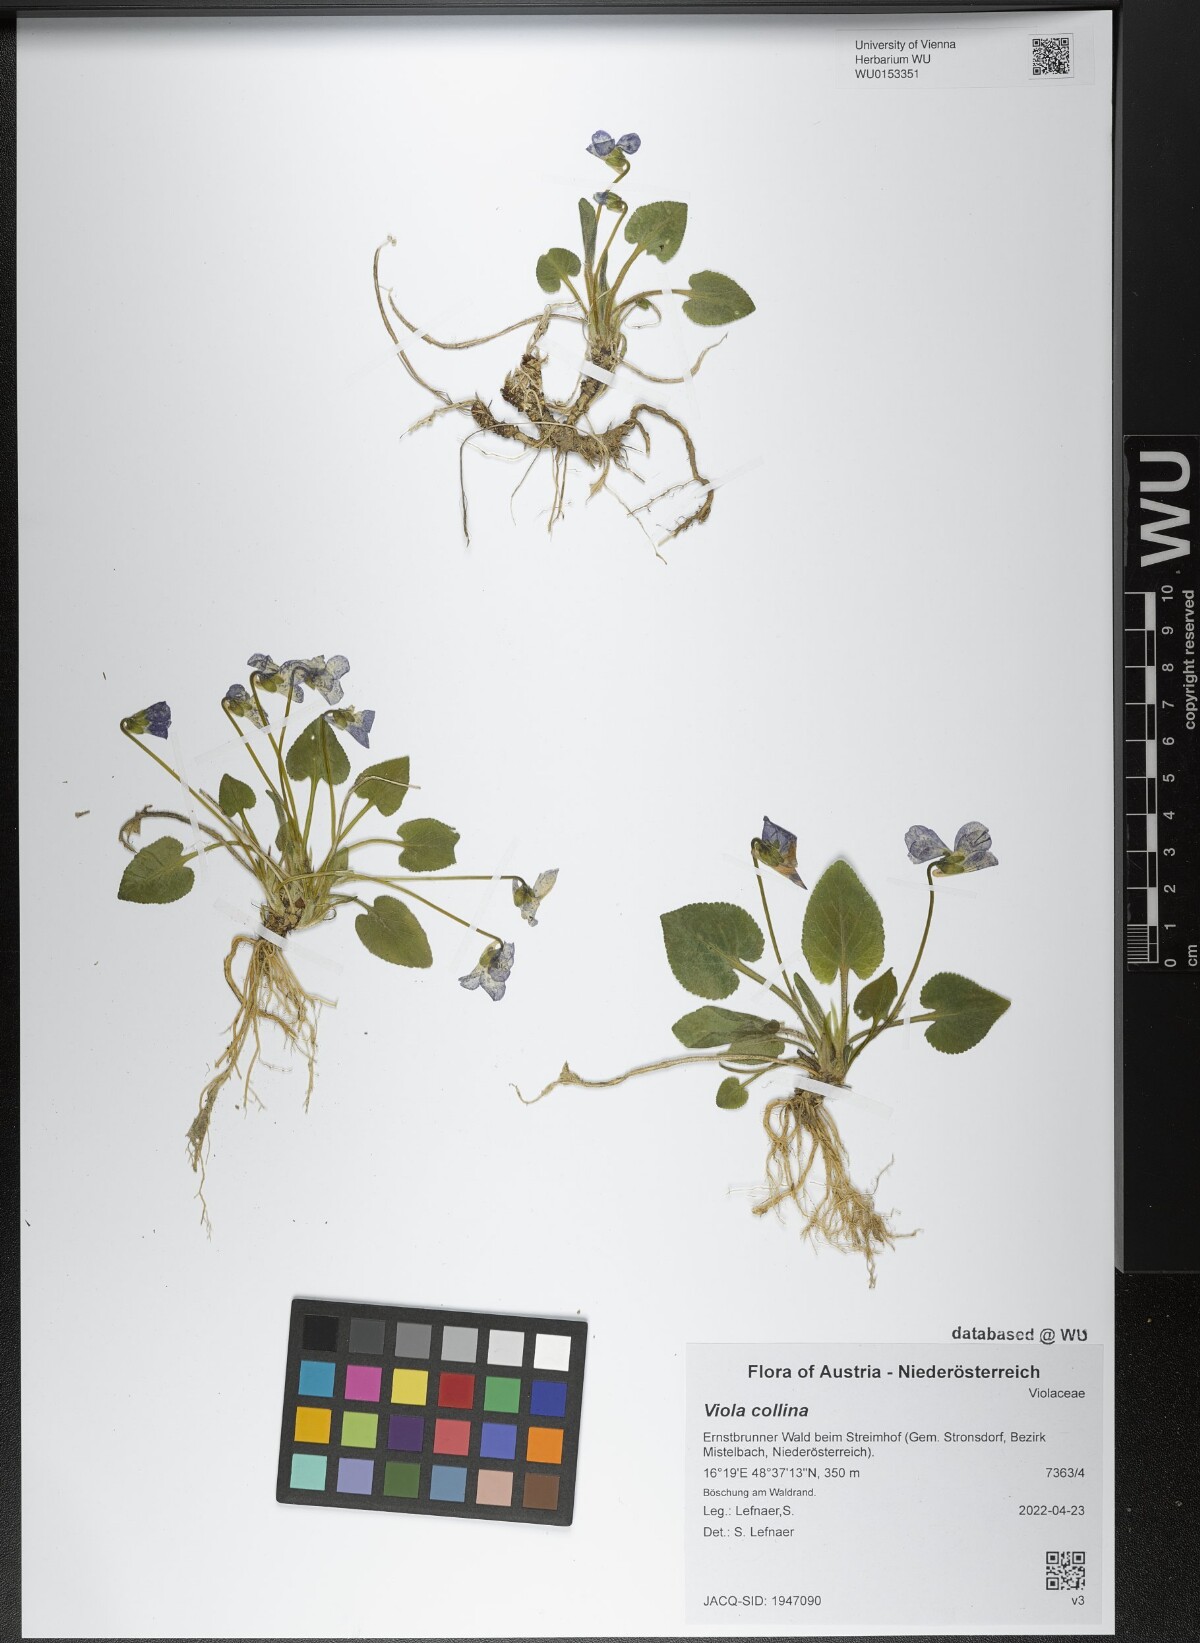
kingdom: Plantae
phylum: Tracheophyta
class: Magnoliopsida
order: Malpighiales
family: Violaceae
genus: Viola
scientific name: Viola collina
